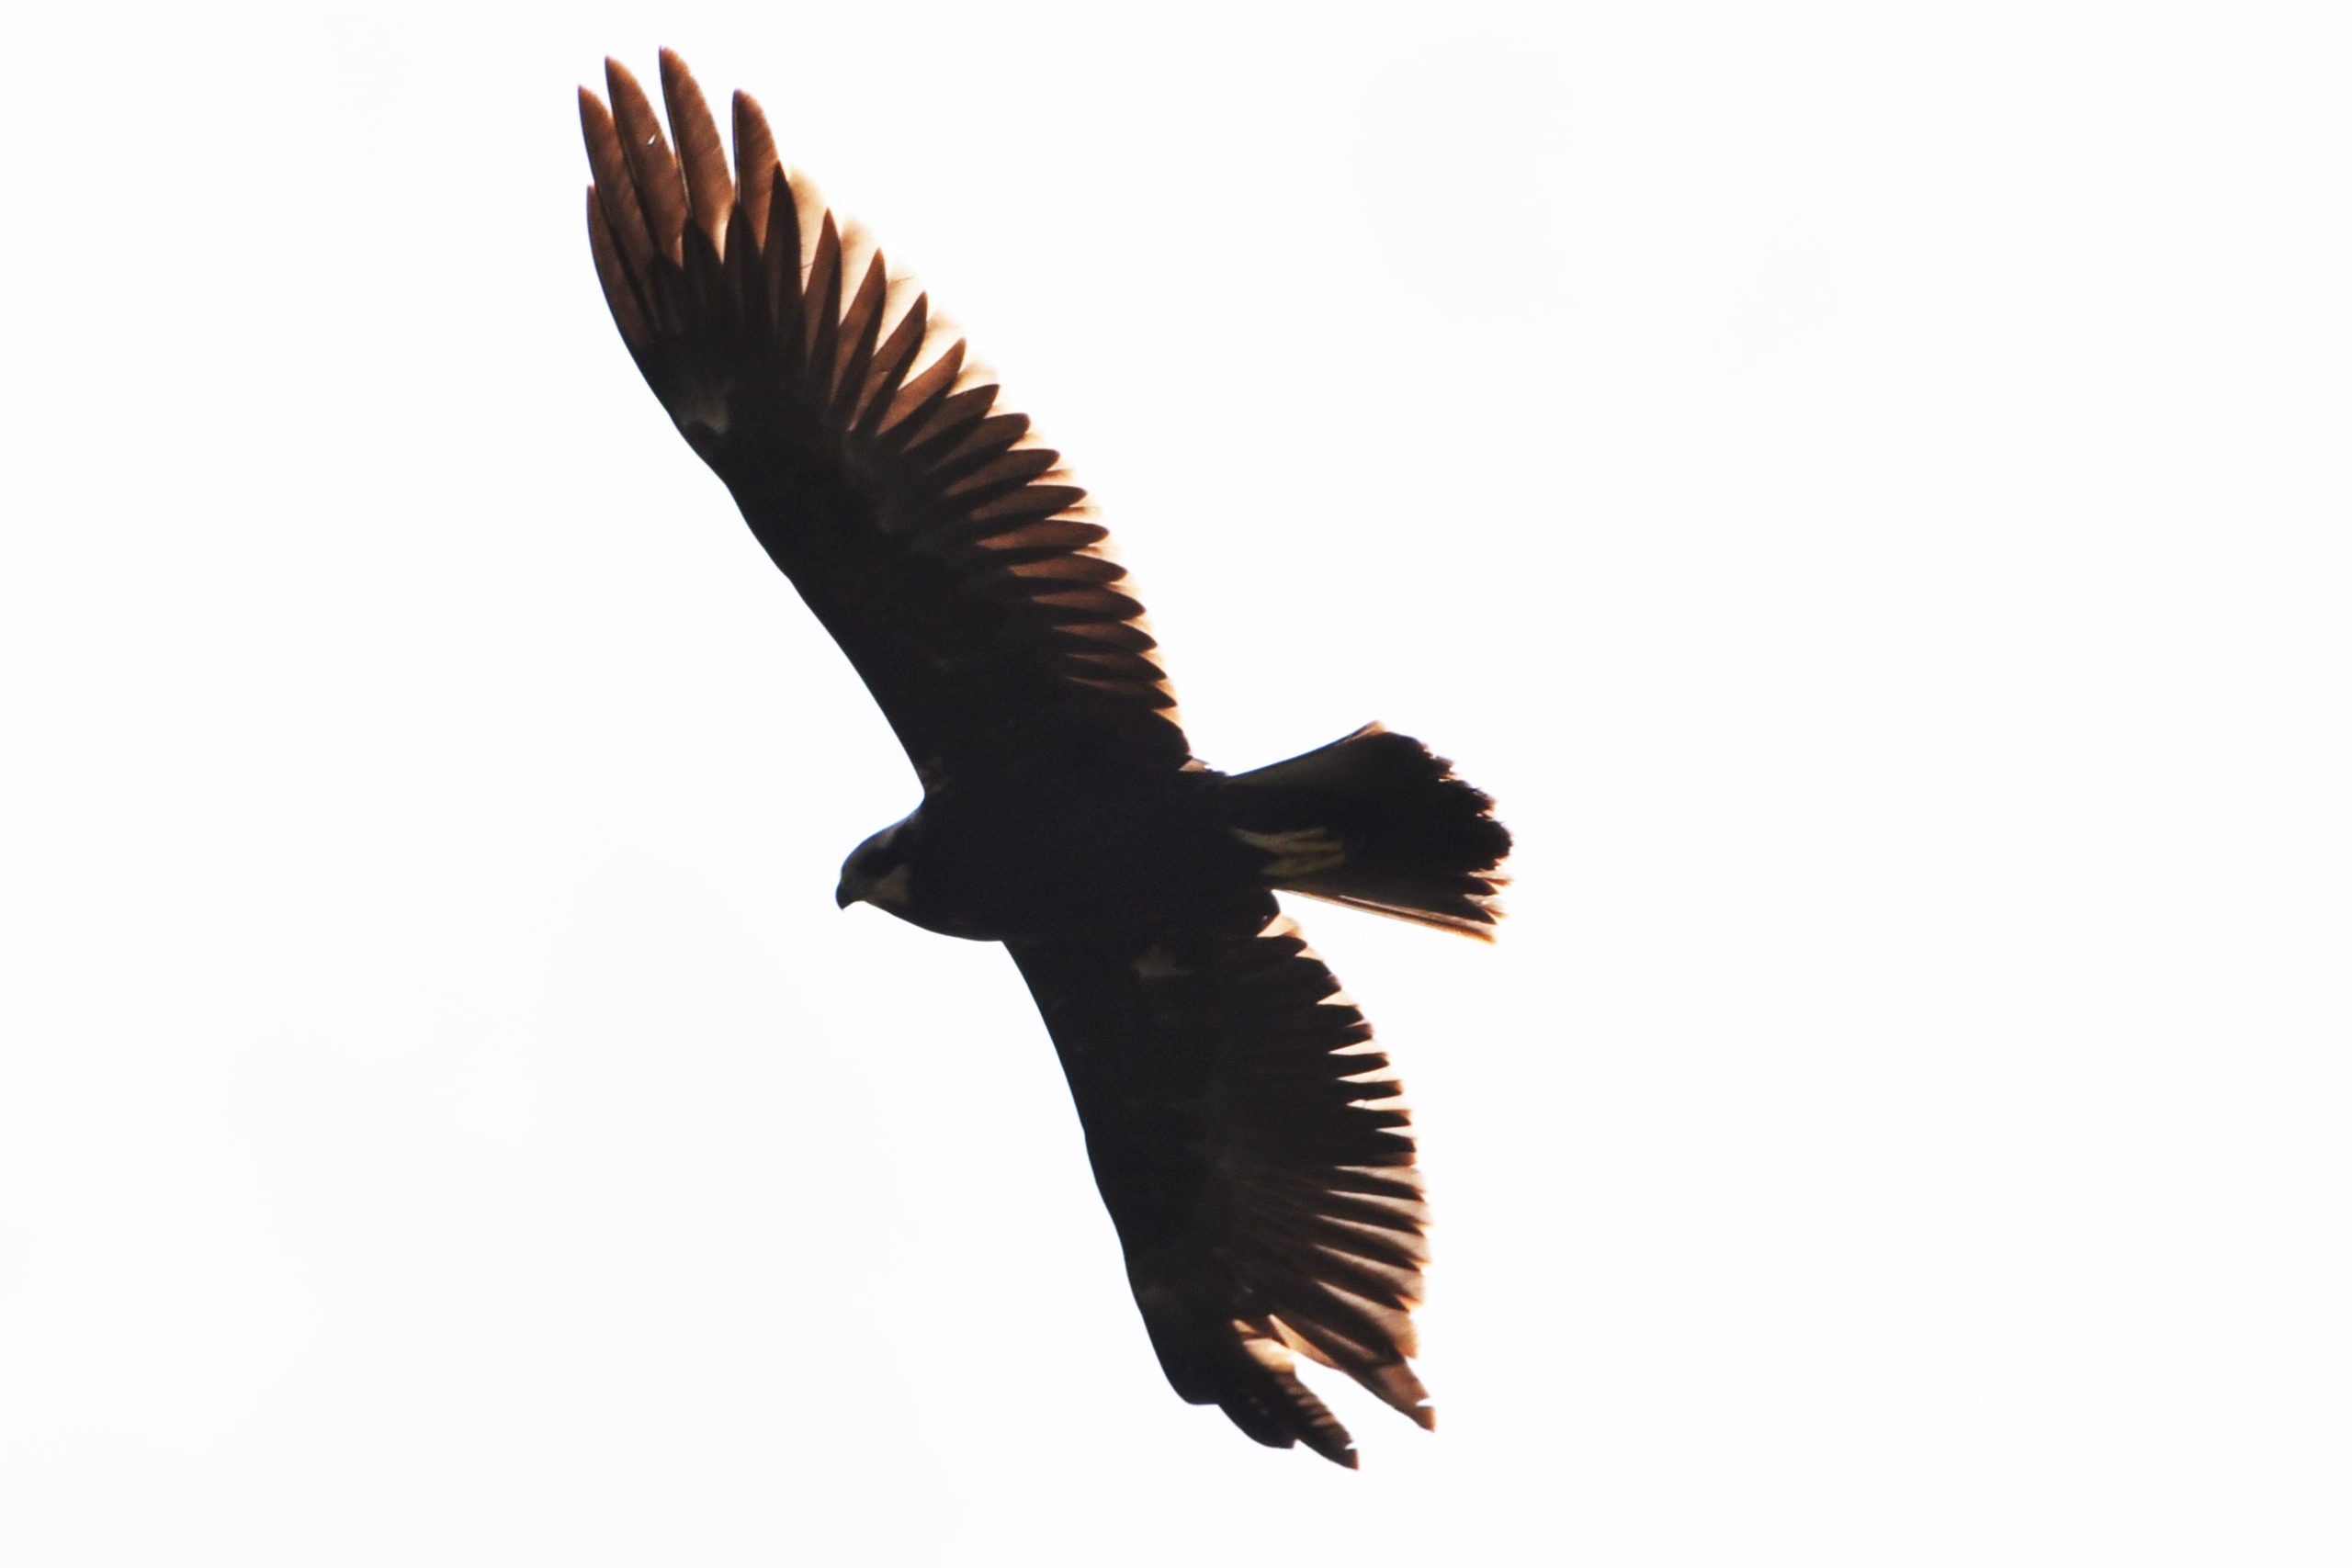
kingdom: Animalia
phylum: Chordata
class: Aves
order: Accipitriformes
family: Accipitridae
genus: Buteo
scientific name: Buteo buteo
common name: Musvåge
